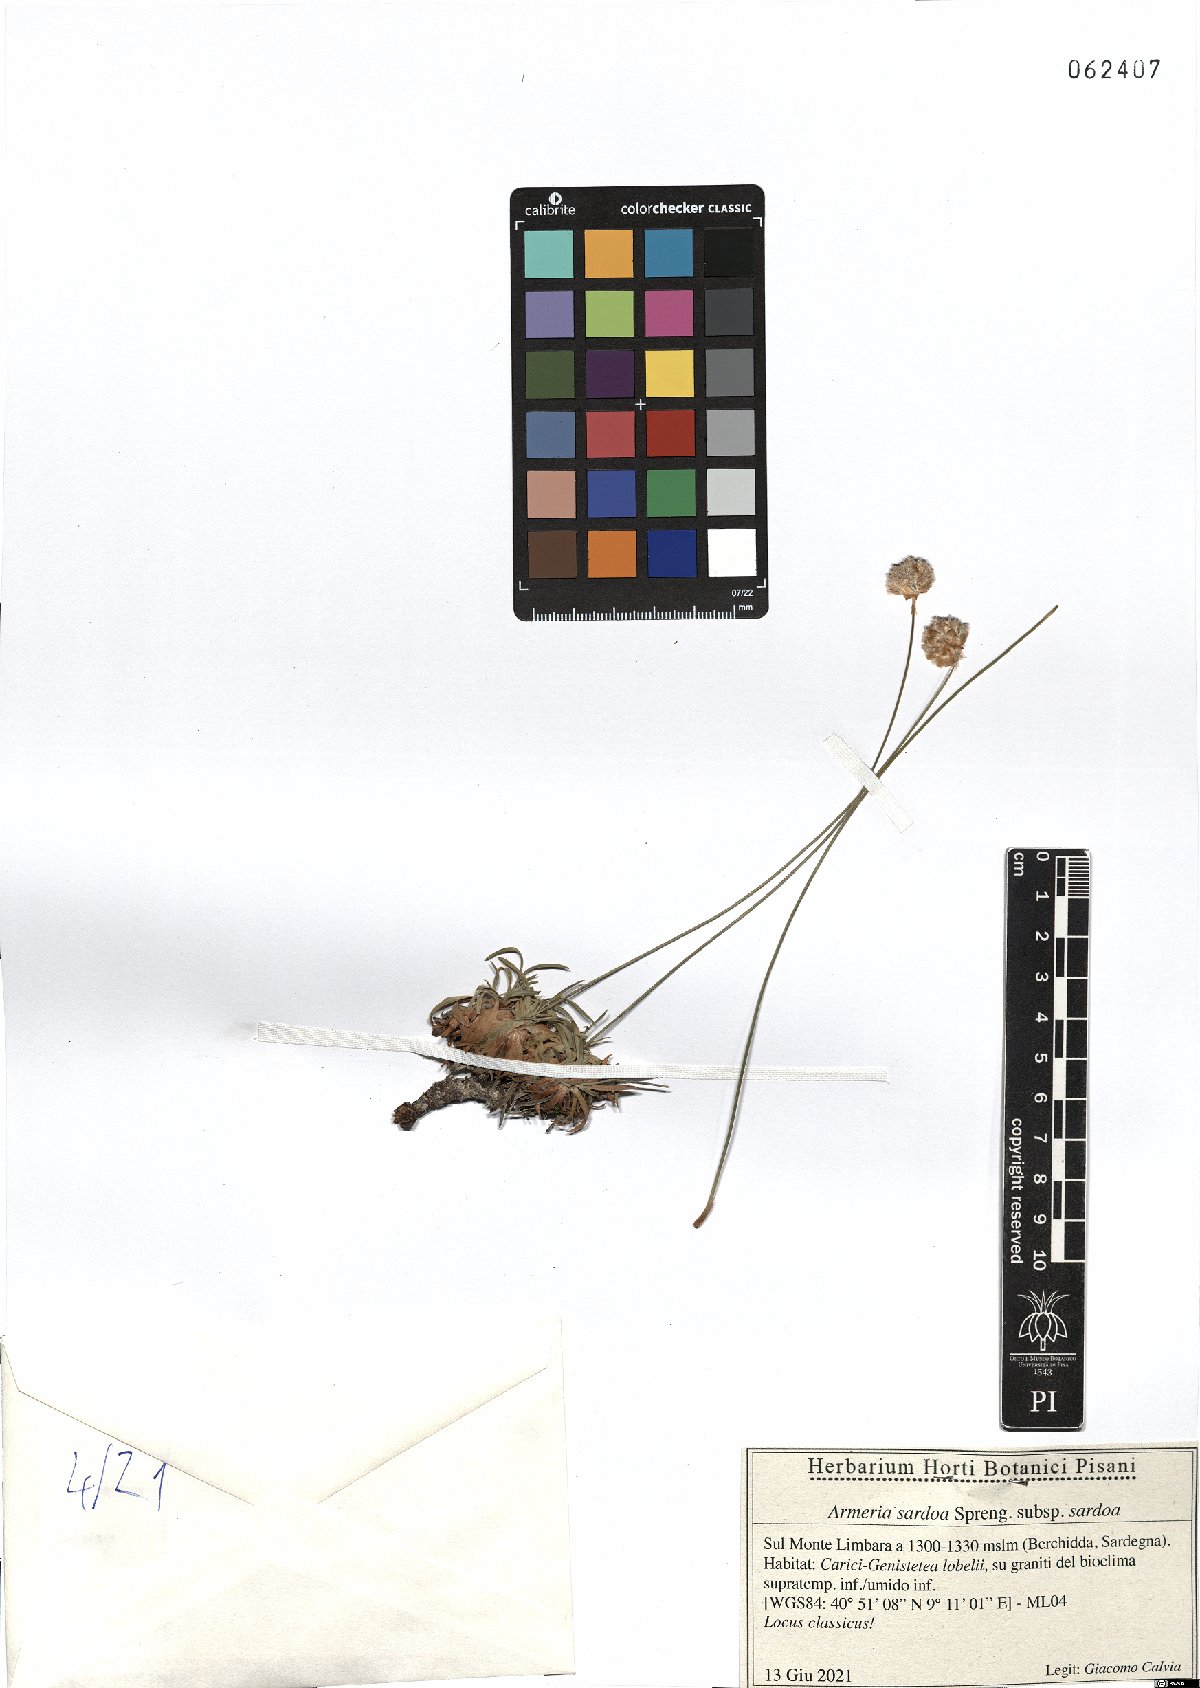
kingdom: Plantae
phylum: Tracheophyta
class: Magnoliopsida
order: Caryophyllales
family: Plumbaginaceae
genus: Armeria
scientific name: Armeria sardoa
